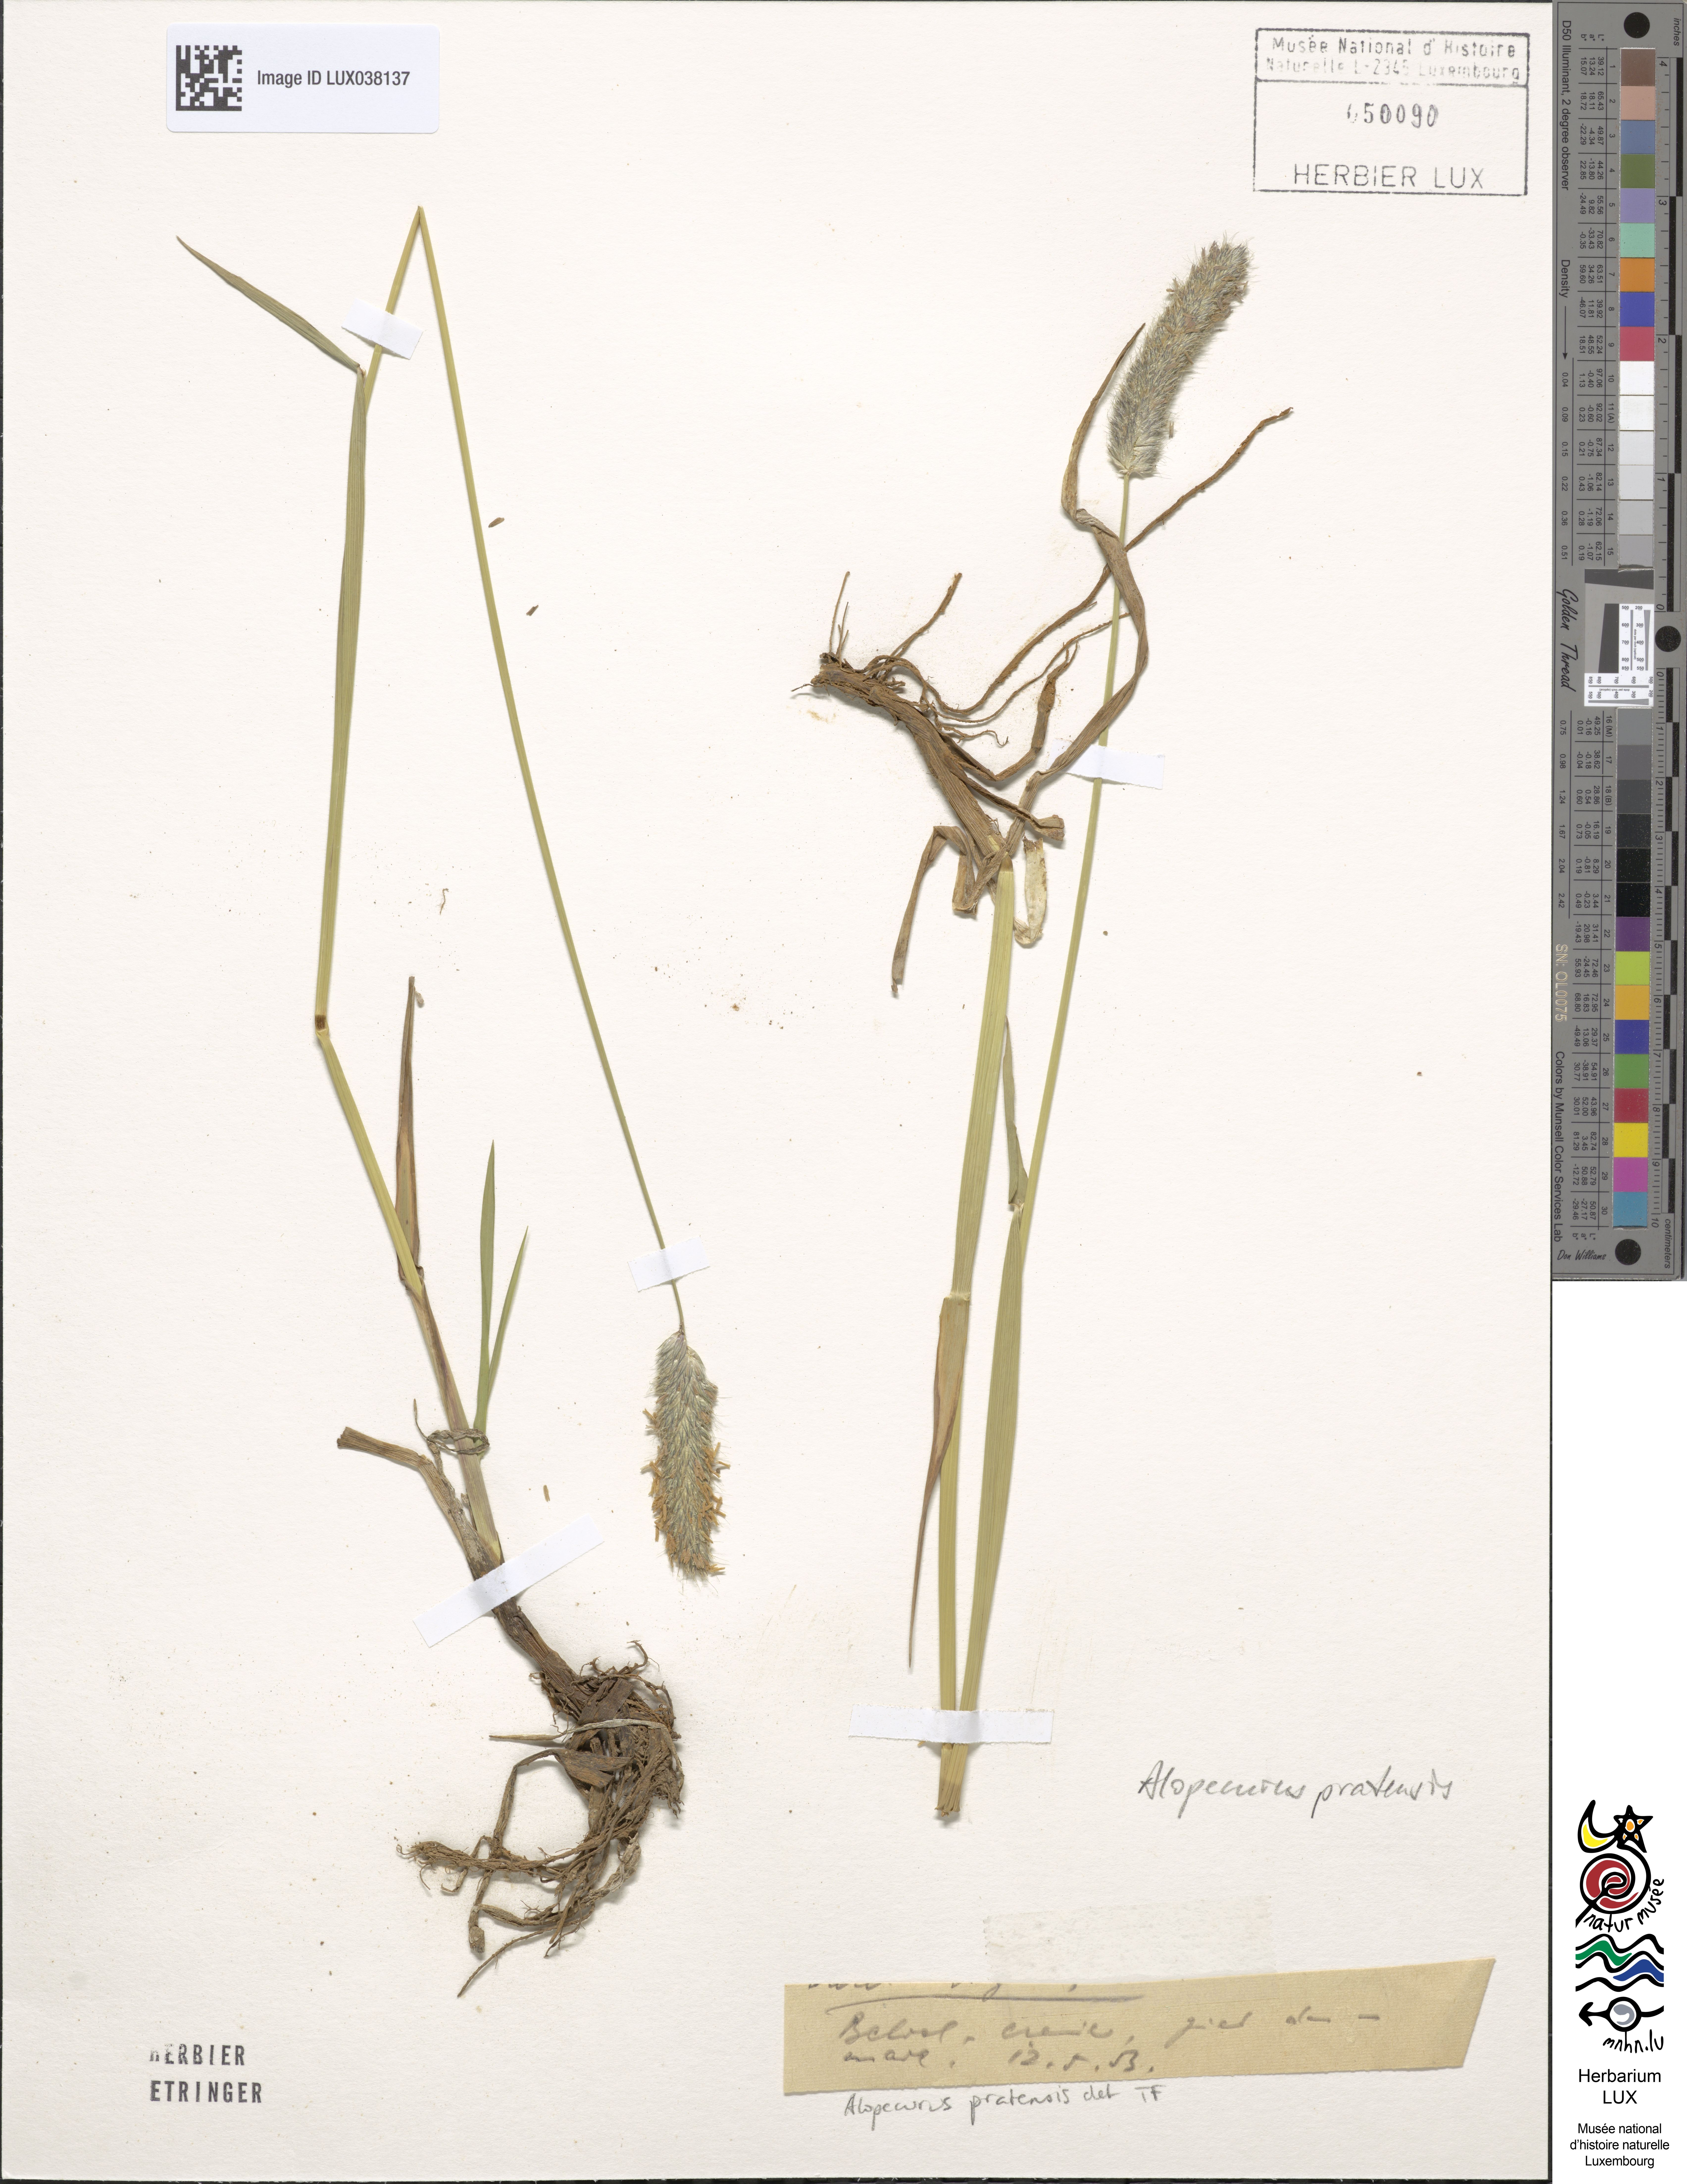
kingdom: Plantae
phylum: Tracheophyta
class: Liliopsida
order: Poales
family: Poaceae
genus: Alopecurus
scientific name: Alopecurus pratensis
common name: Meadow foxtail
